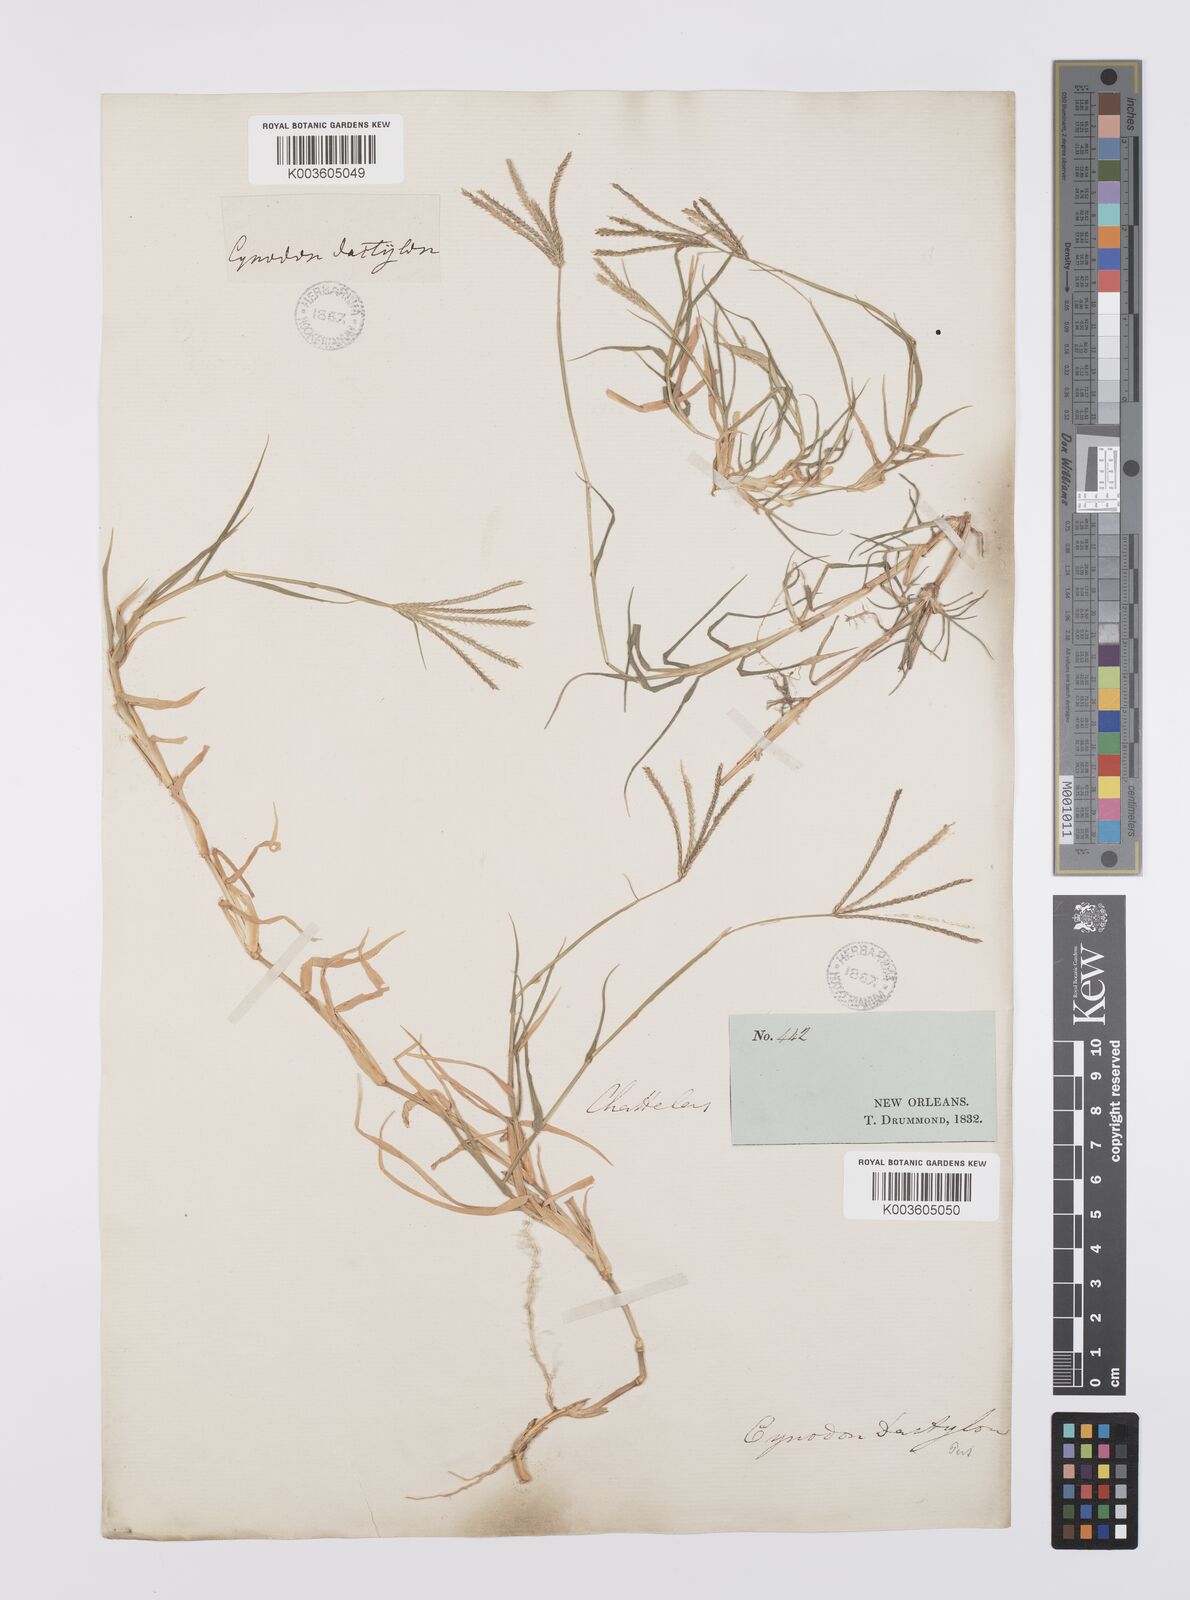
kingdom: Plantae
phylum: Tracheophyta
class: Liliopsida
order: Poales
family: Poaceae
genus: Cynodon
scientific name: Cynodon dactylon
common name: Bermuda grass
